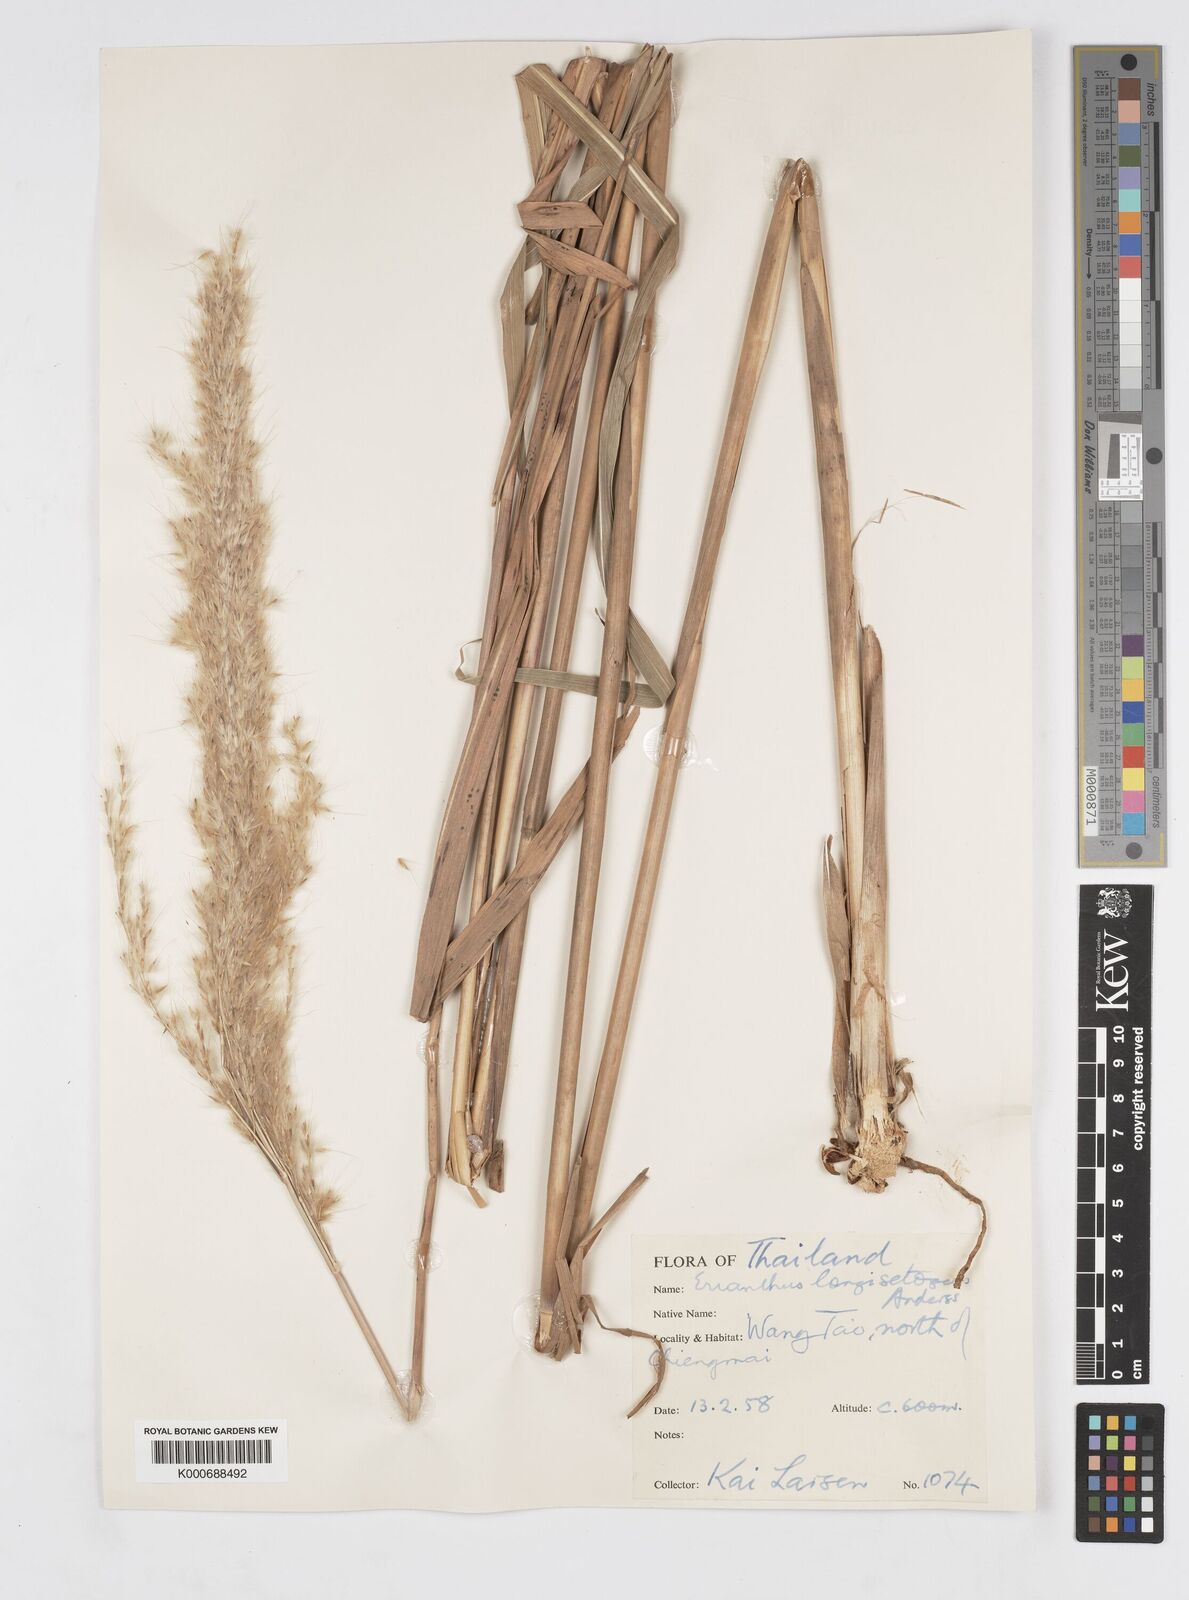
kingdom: Plantae
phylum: Tracheophyta
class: Liliopsida
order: Poales
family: Poaceae
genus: Saccharum
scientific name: Saccharum
